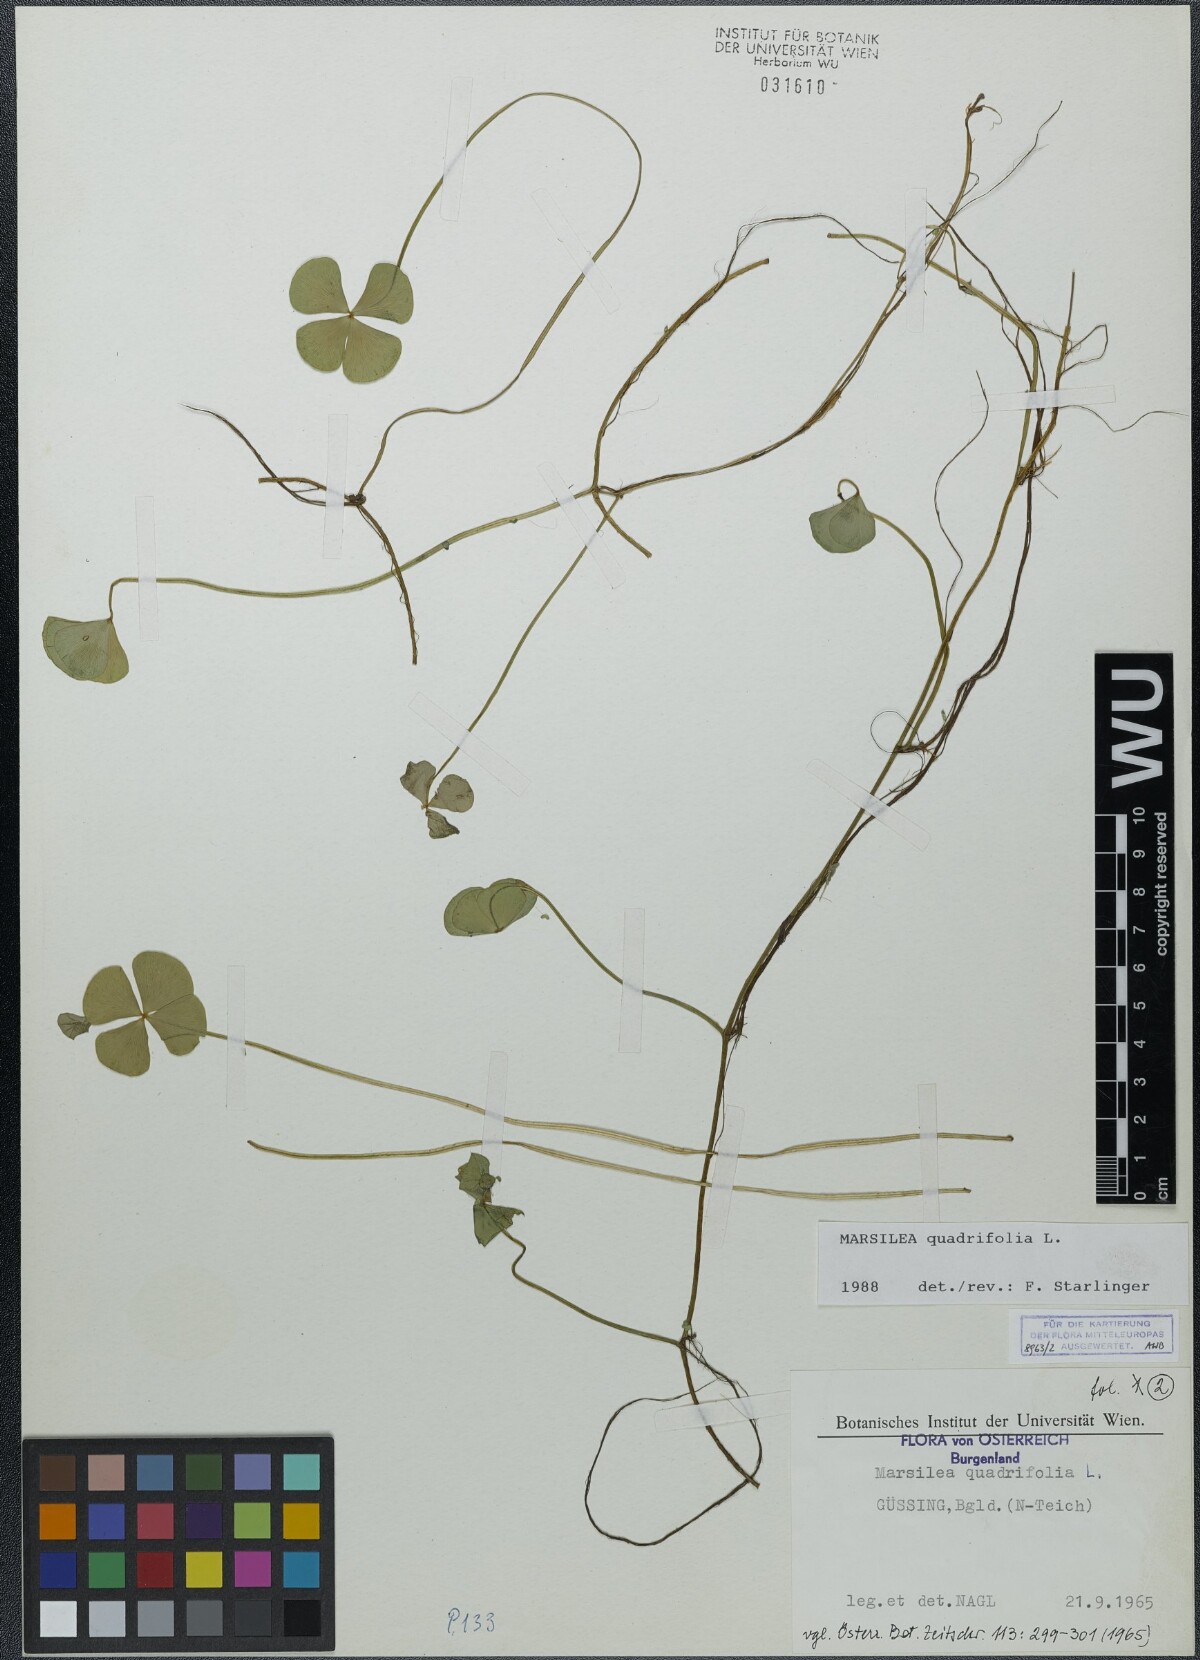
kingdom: Plantae
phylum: Tracheophyta
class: Polypodiopsida
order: Salviniales
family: Marsileaceae
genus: Marsilea
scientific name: Marsilea quadrifolia
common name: Water shamrock
